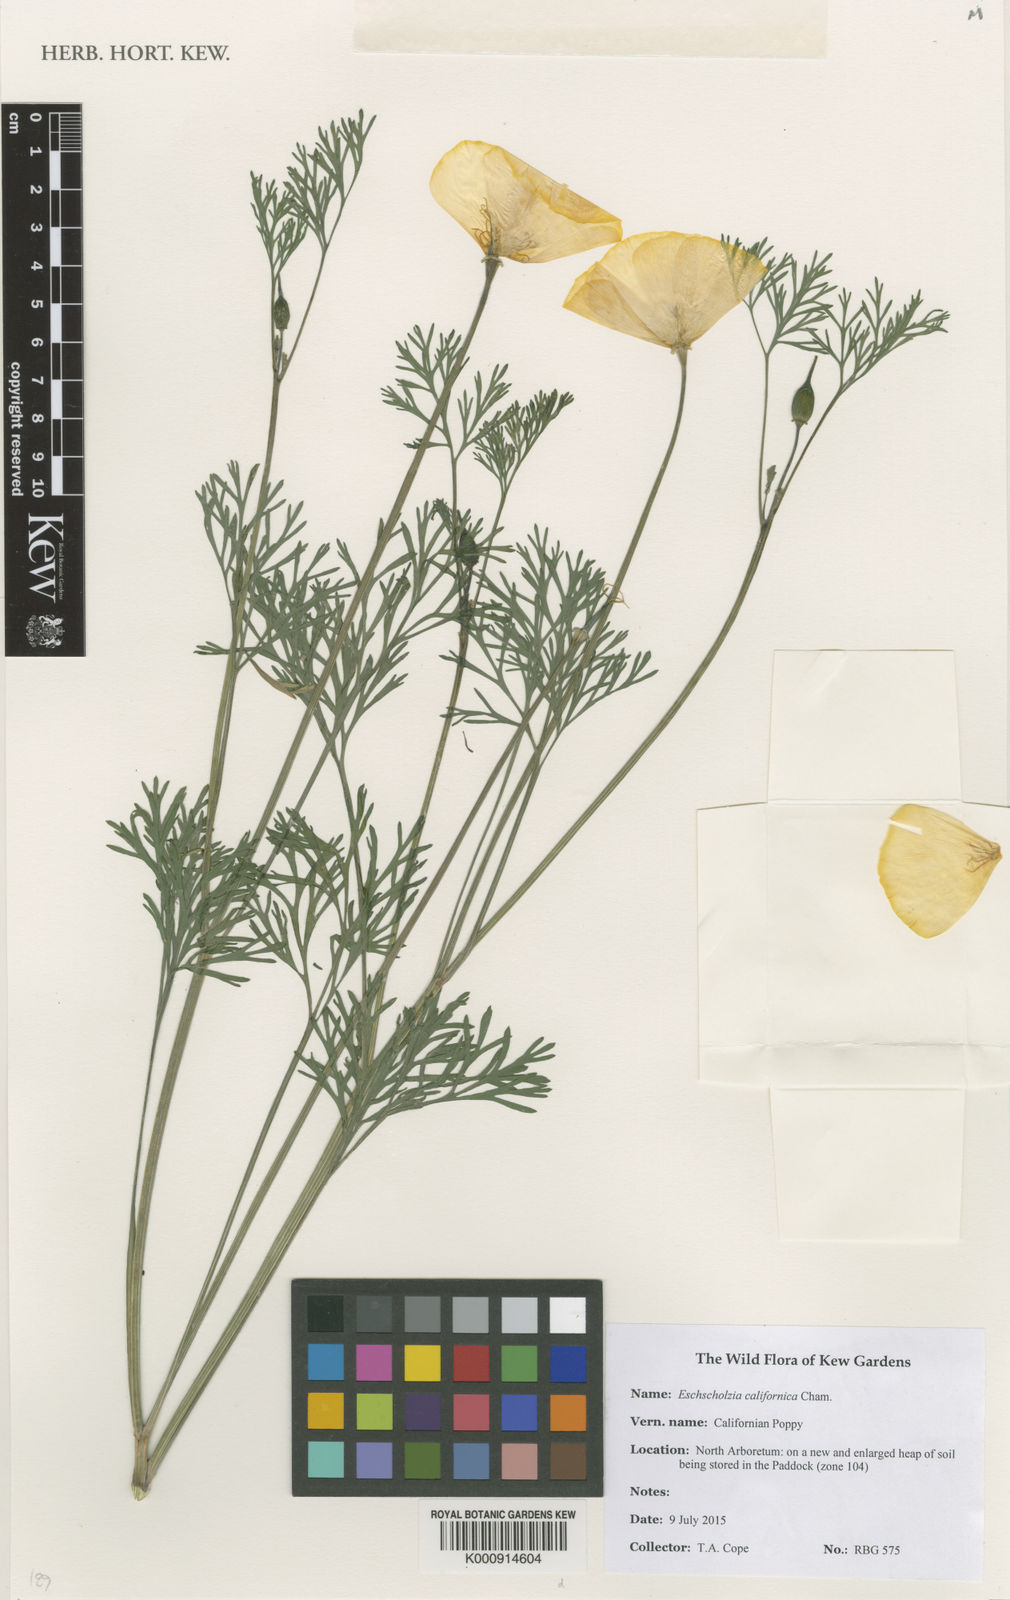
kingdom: Plantae
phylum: Tracheophyta
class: Magnoliopsida
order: Ranunculales
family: Papaveraceae
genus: Eschscholzia
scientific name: Eschscholzia californica
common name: California poppy
